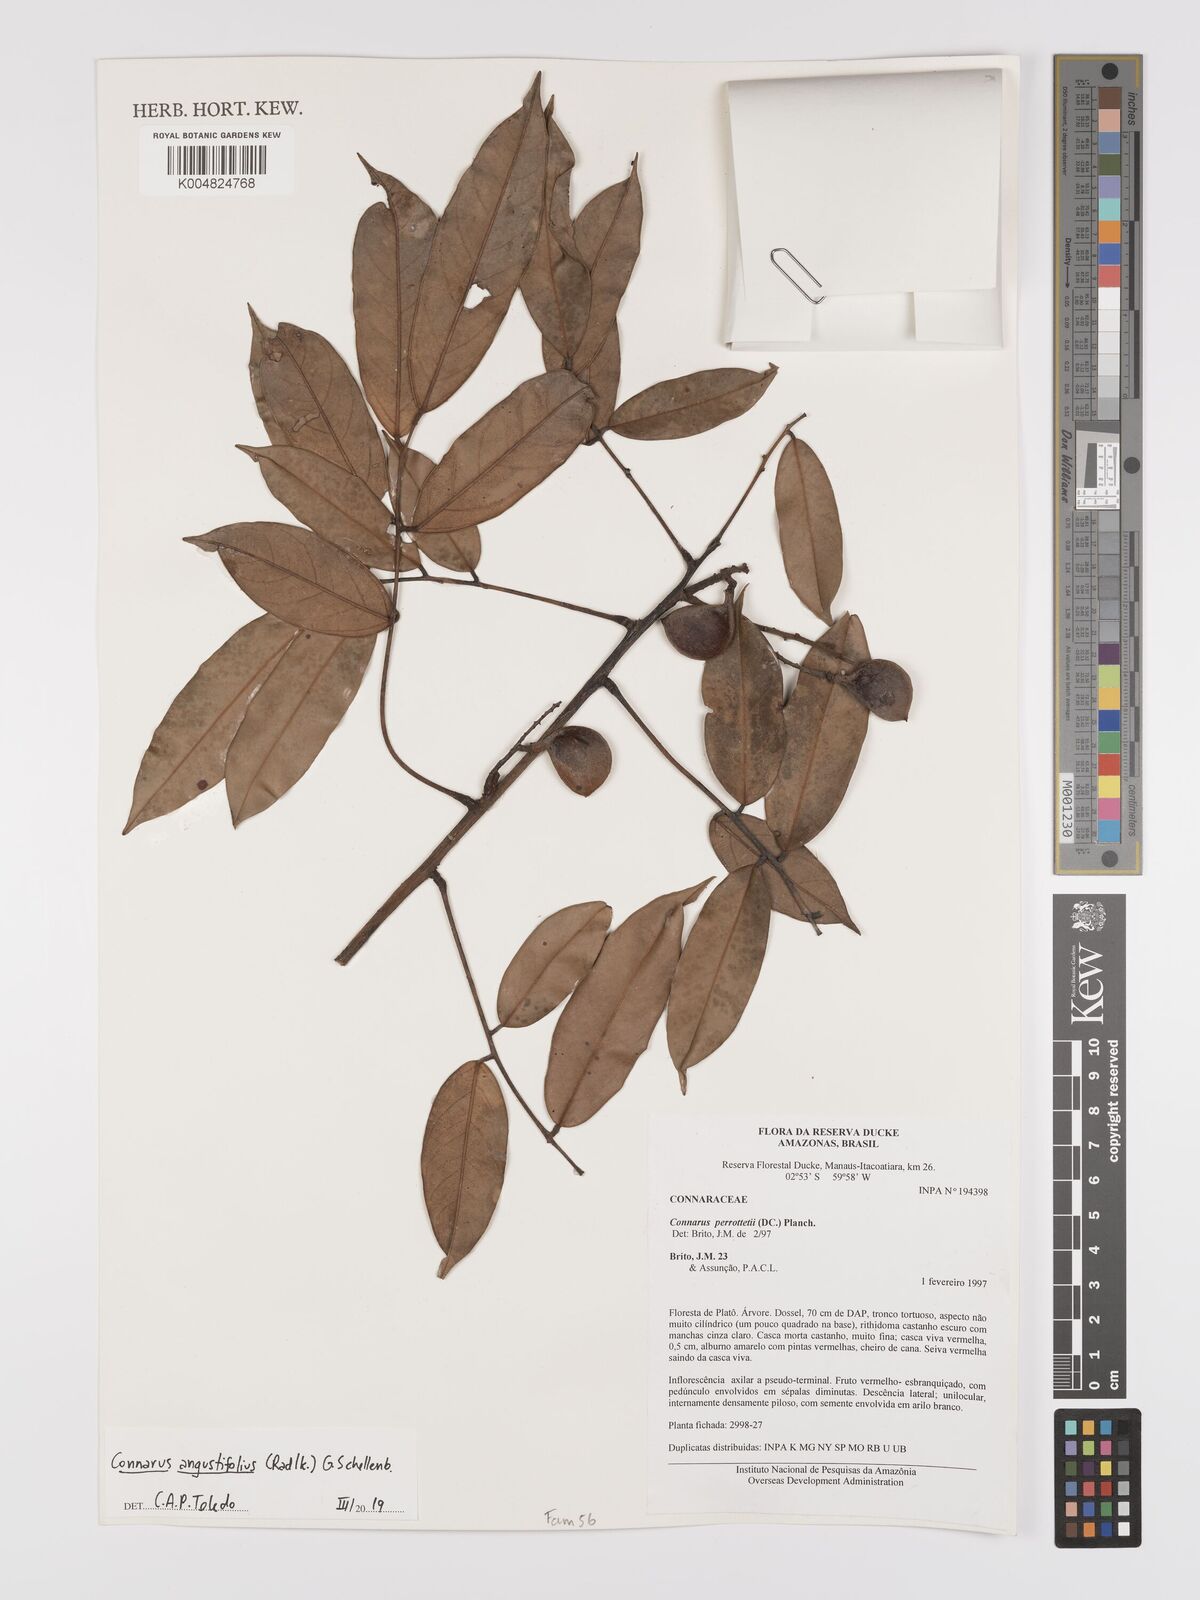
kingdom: Plantae
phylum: Tracheophyta
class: Magnoliopsida
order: Oxalidales
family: Connaraceae
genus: Connarus
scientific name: Connarus perrottetii
